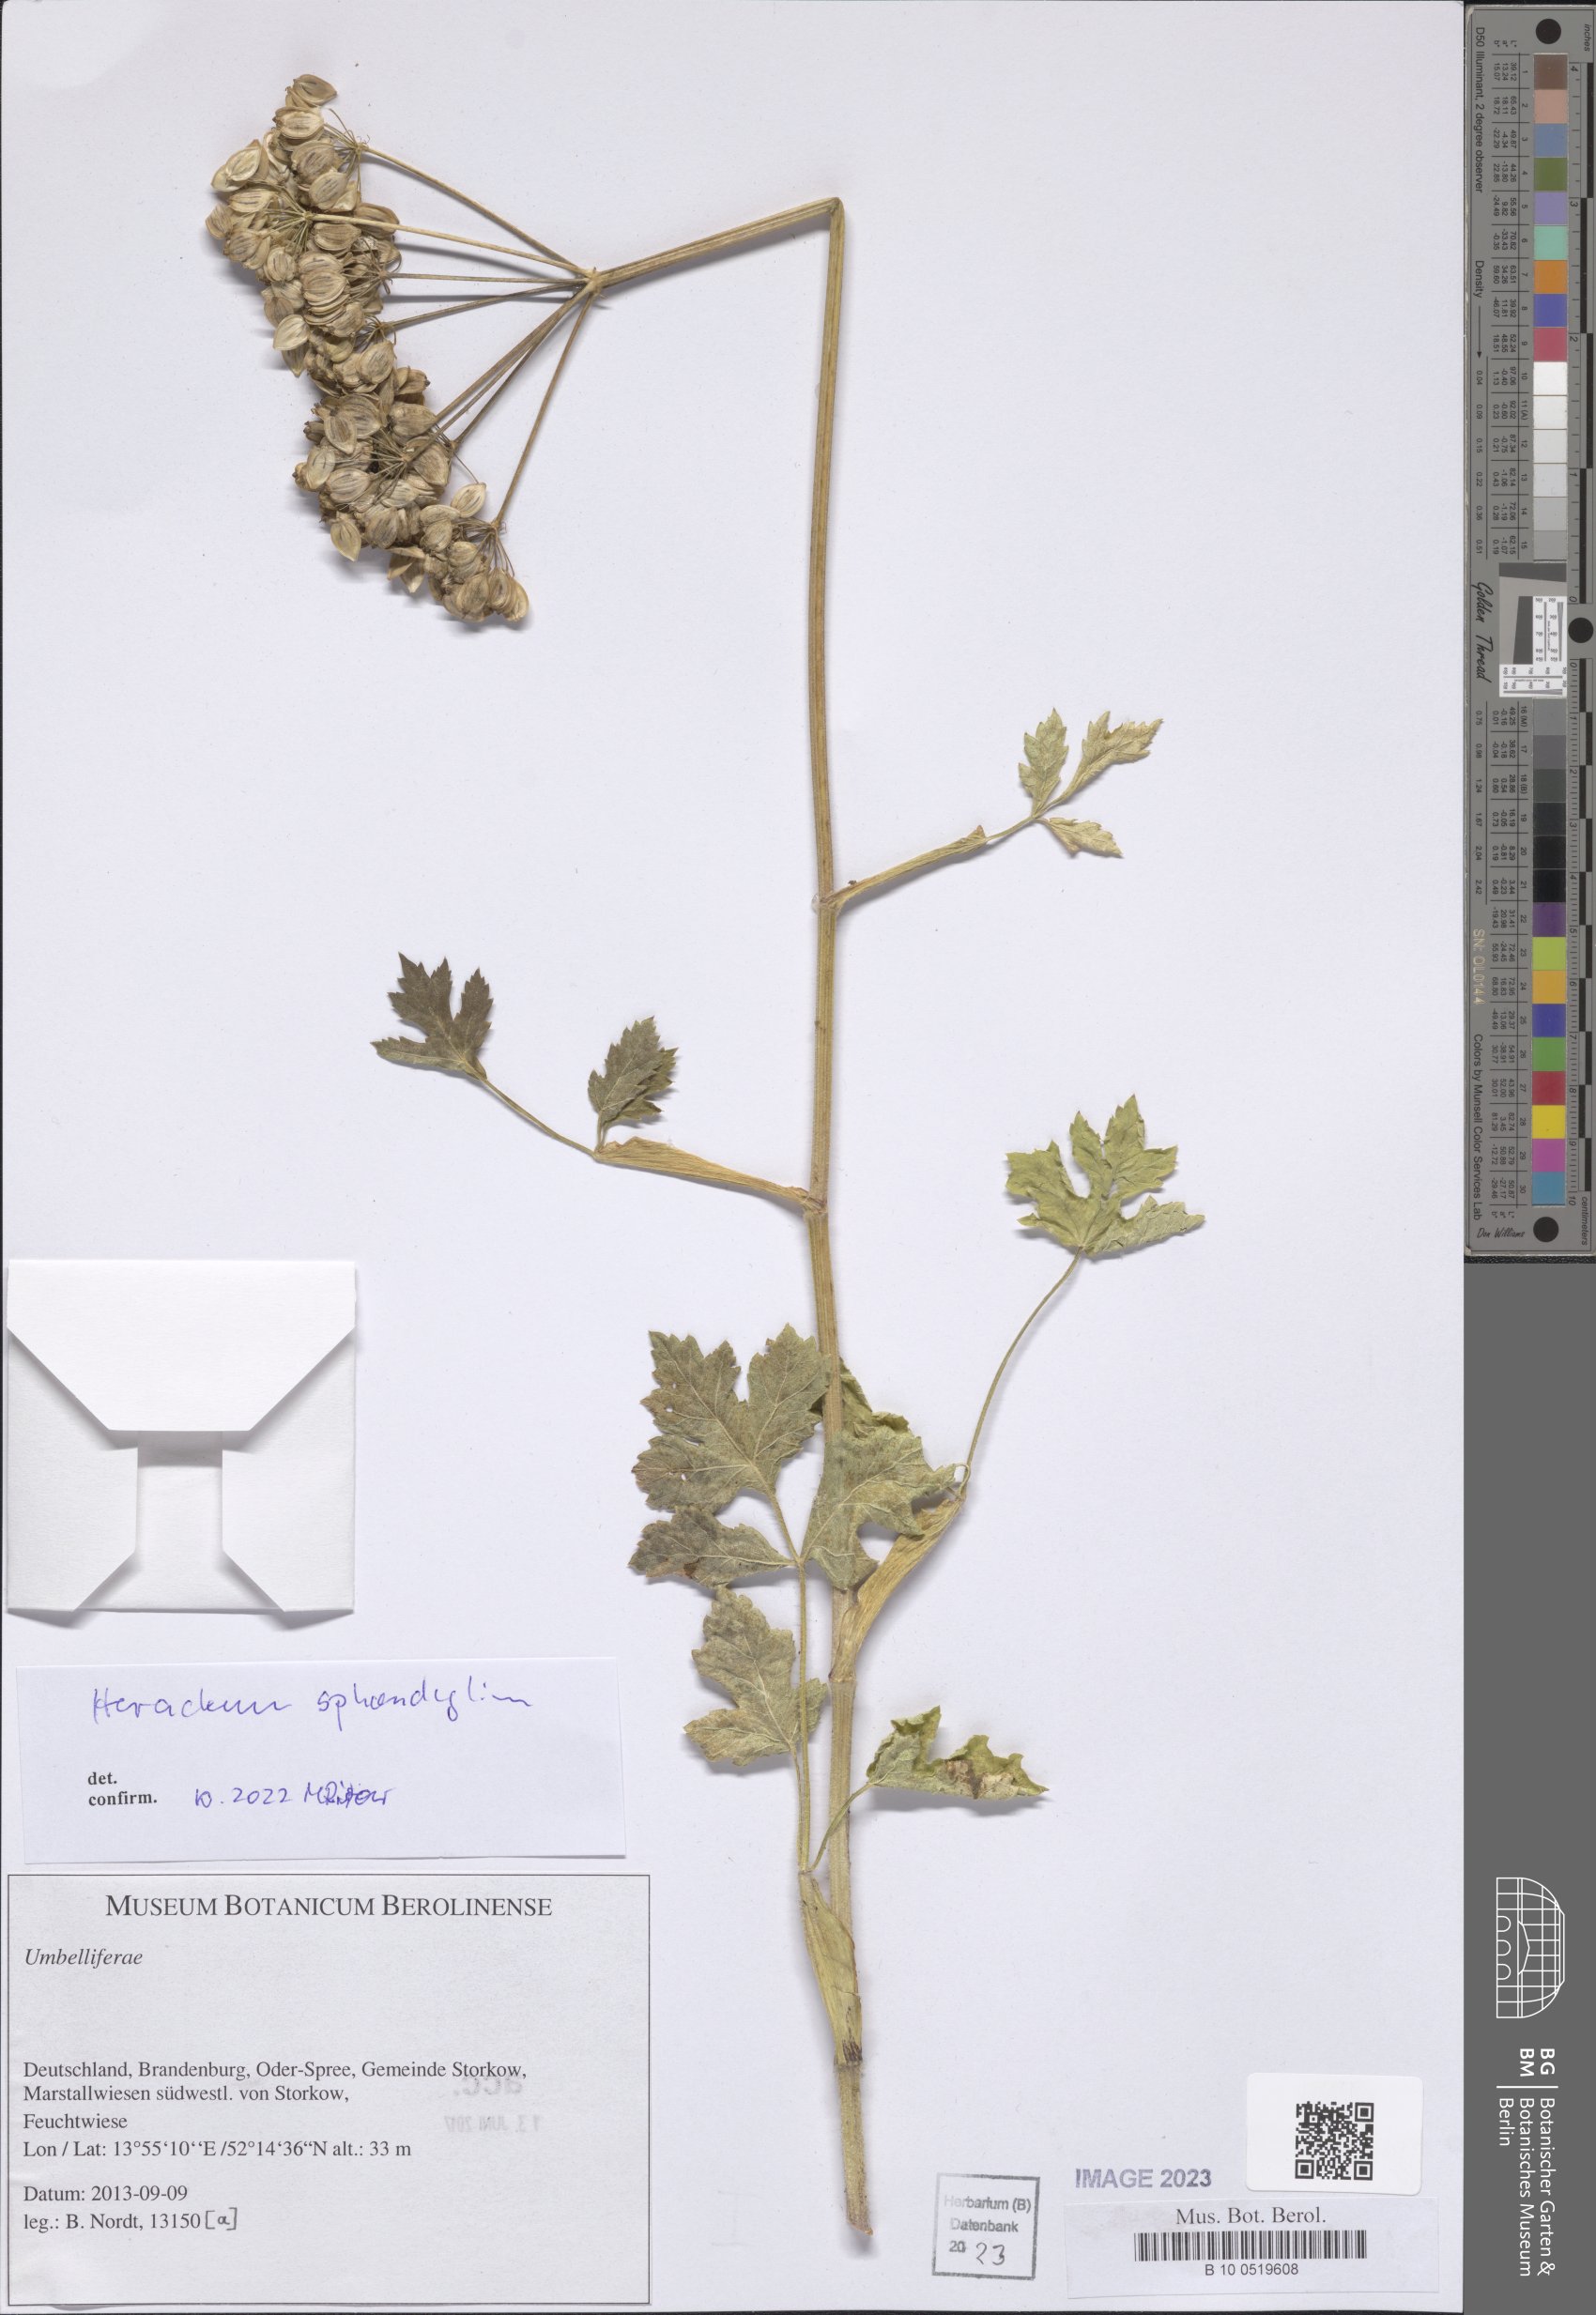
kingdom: Plantae
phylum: Tracheophyta
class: Magnoliopsida
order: Apiales
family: Apiaceae
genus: Heracleum
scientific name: Heracleum sphondylium
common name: Hogweed
